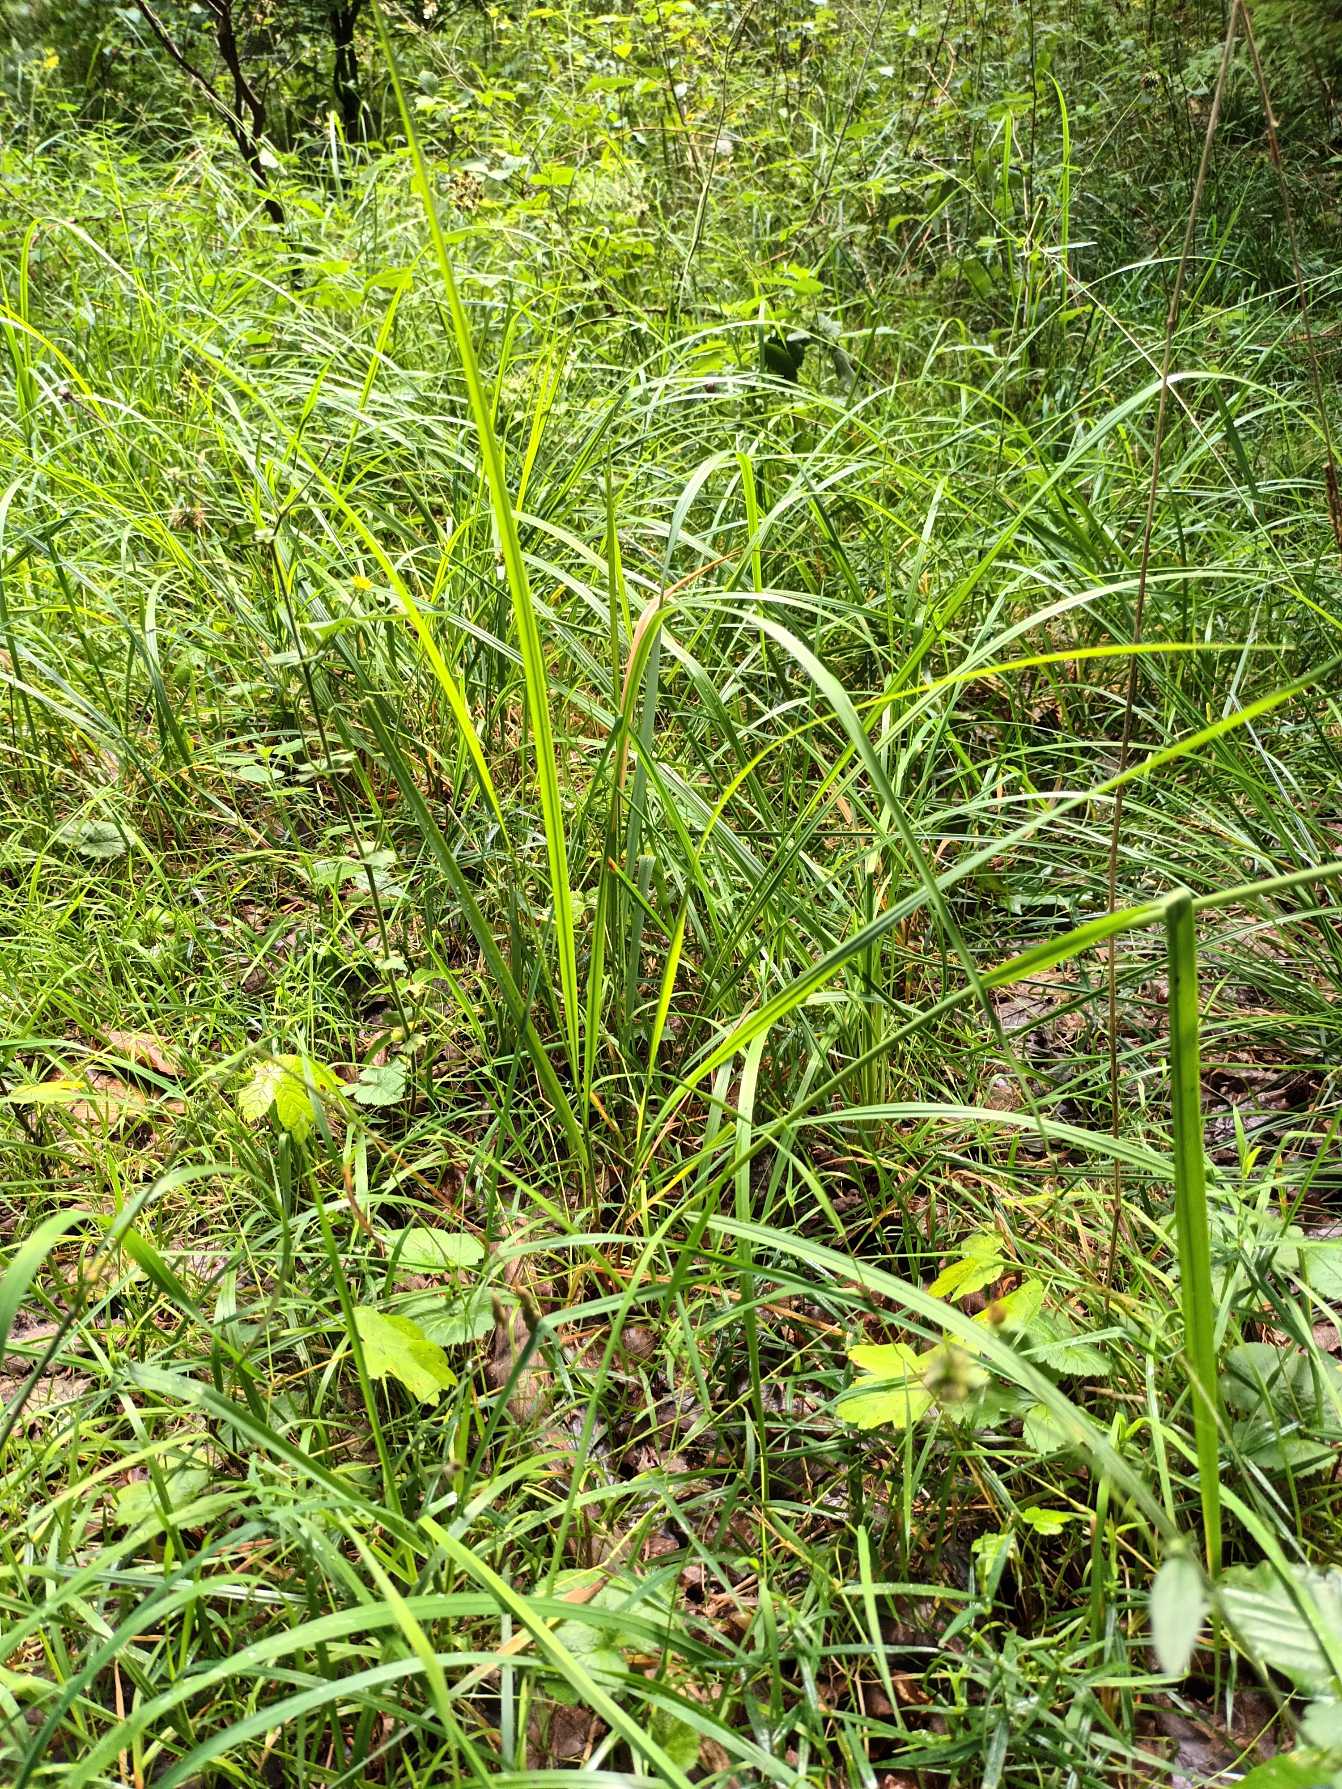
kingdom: Plantae
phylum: Tracheophyta
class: Liliopsida
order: Poales
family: Poaceae
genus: Calamagrostis
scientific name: Calamagrostis epigejos
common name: Bjerg-rørhvene
